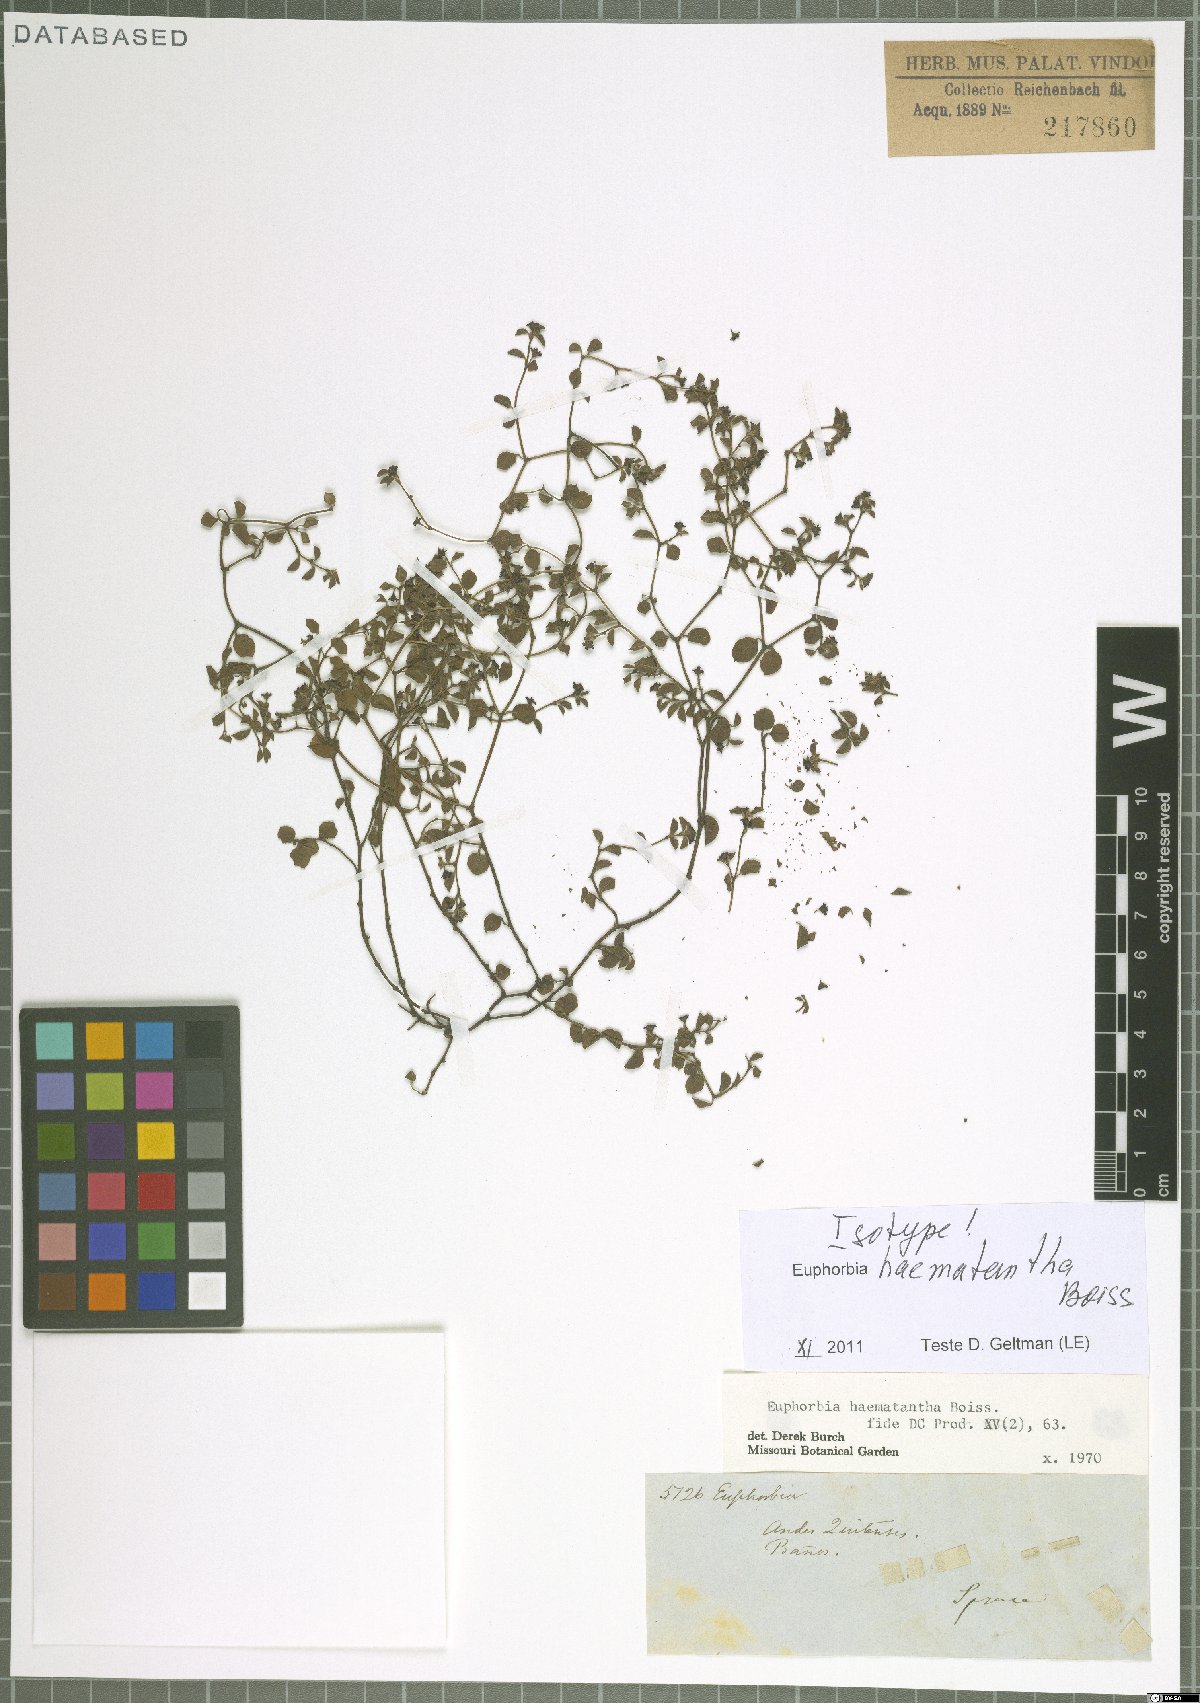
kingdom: Plantae
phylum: Tracheophyta
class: Magnoliopsida
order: Malpighiales
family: Euphorbiaceae
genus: Euphorbia
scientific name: Euphorbia haematantha
